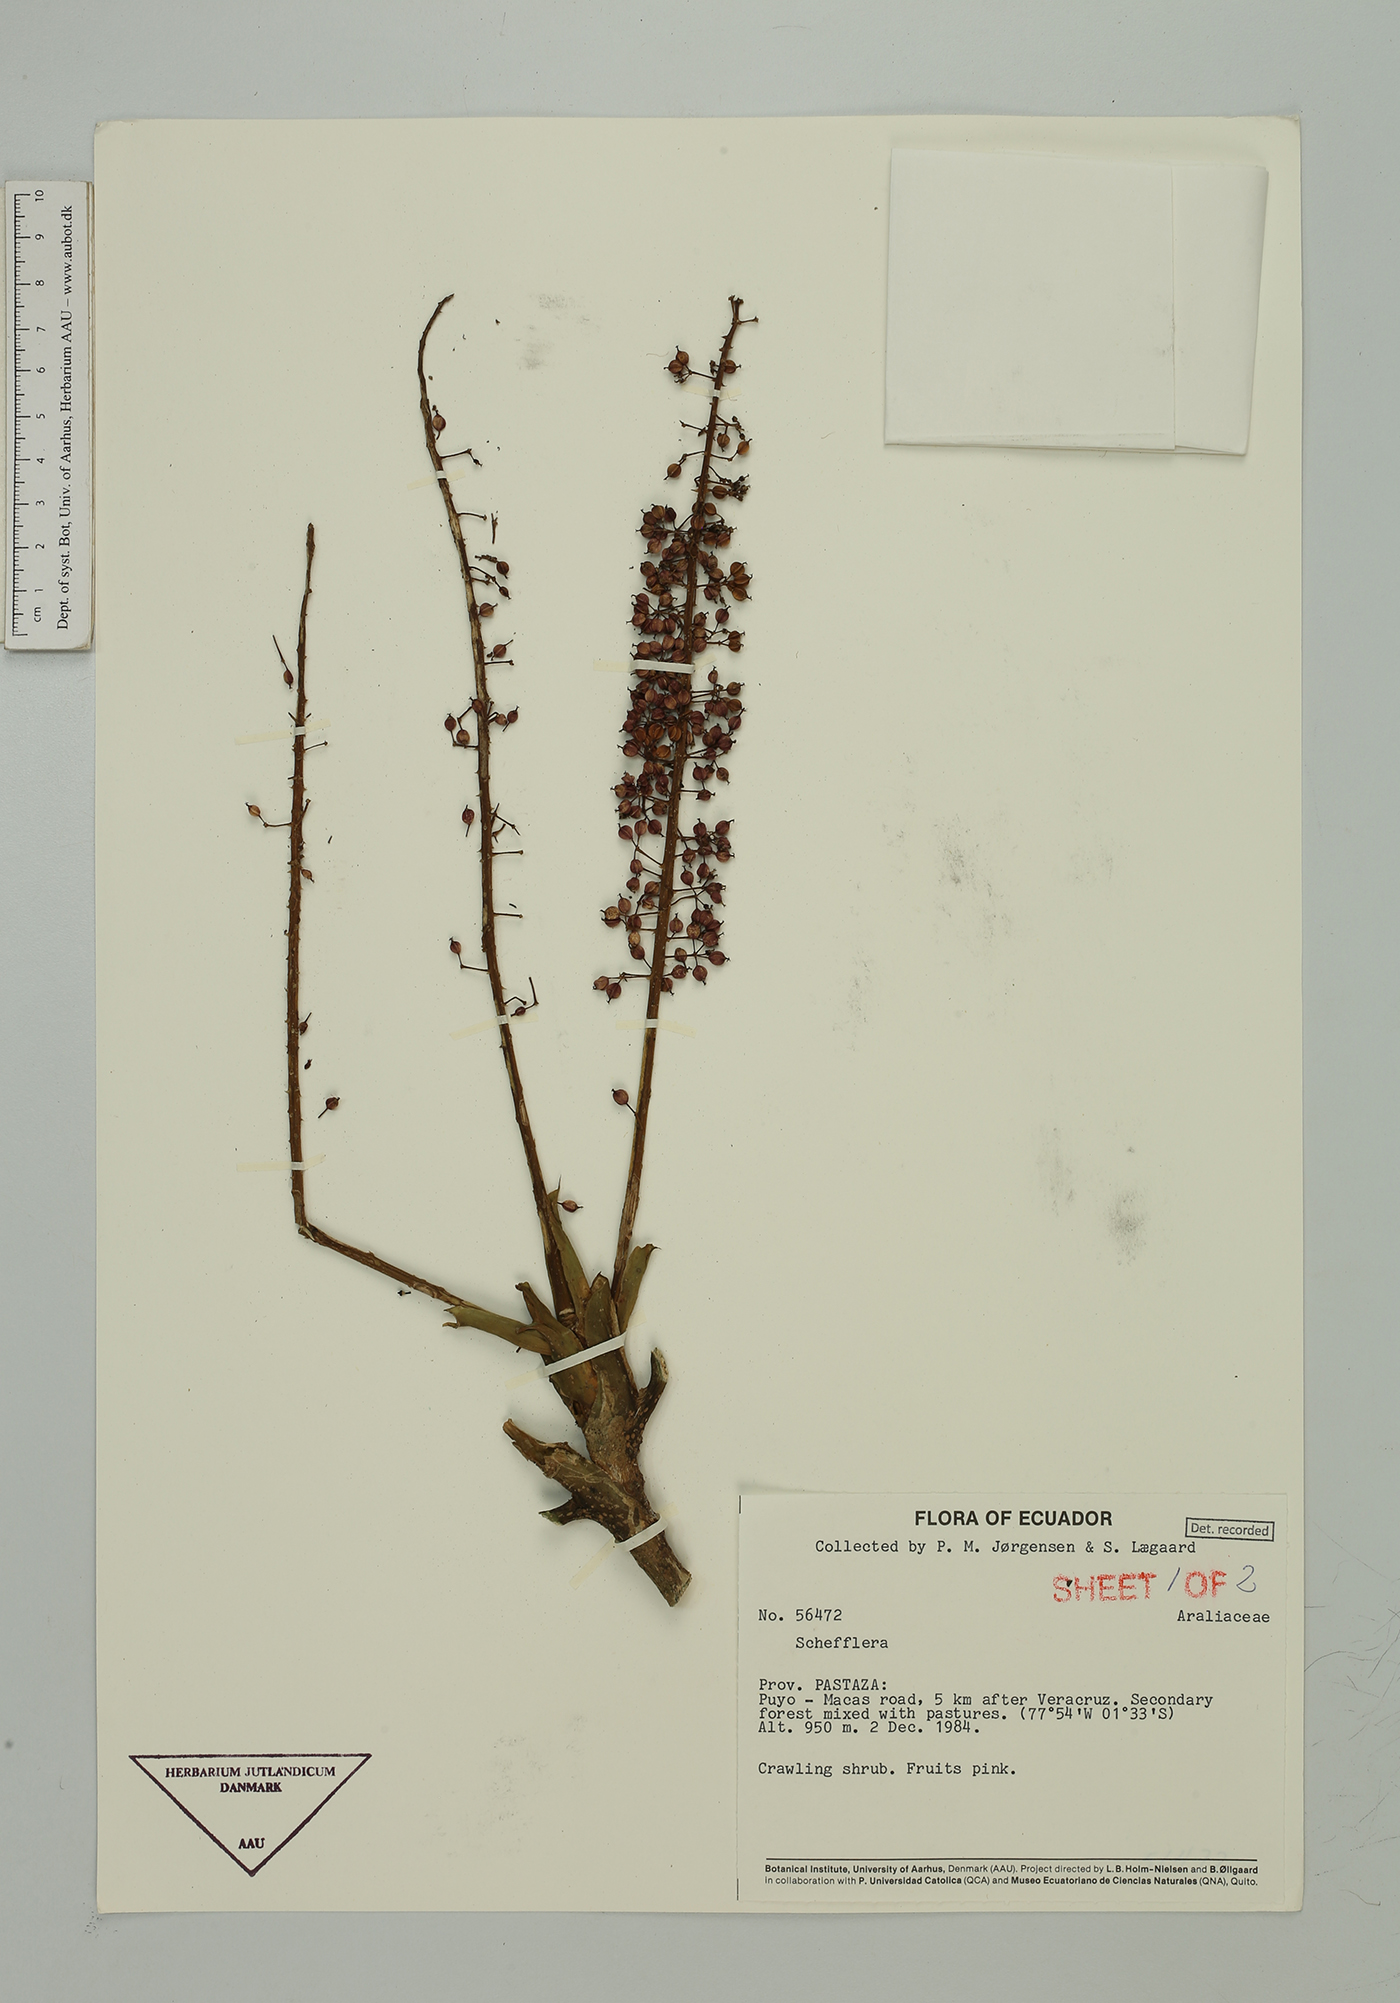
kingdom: Plantae
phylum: Tracheophyta
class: Magnoliopsida
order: Apiales
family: Araliaceae
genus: Sciodaphyllum
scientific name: Sciodaphyllum
